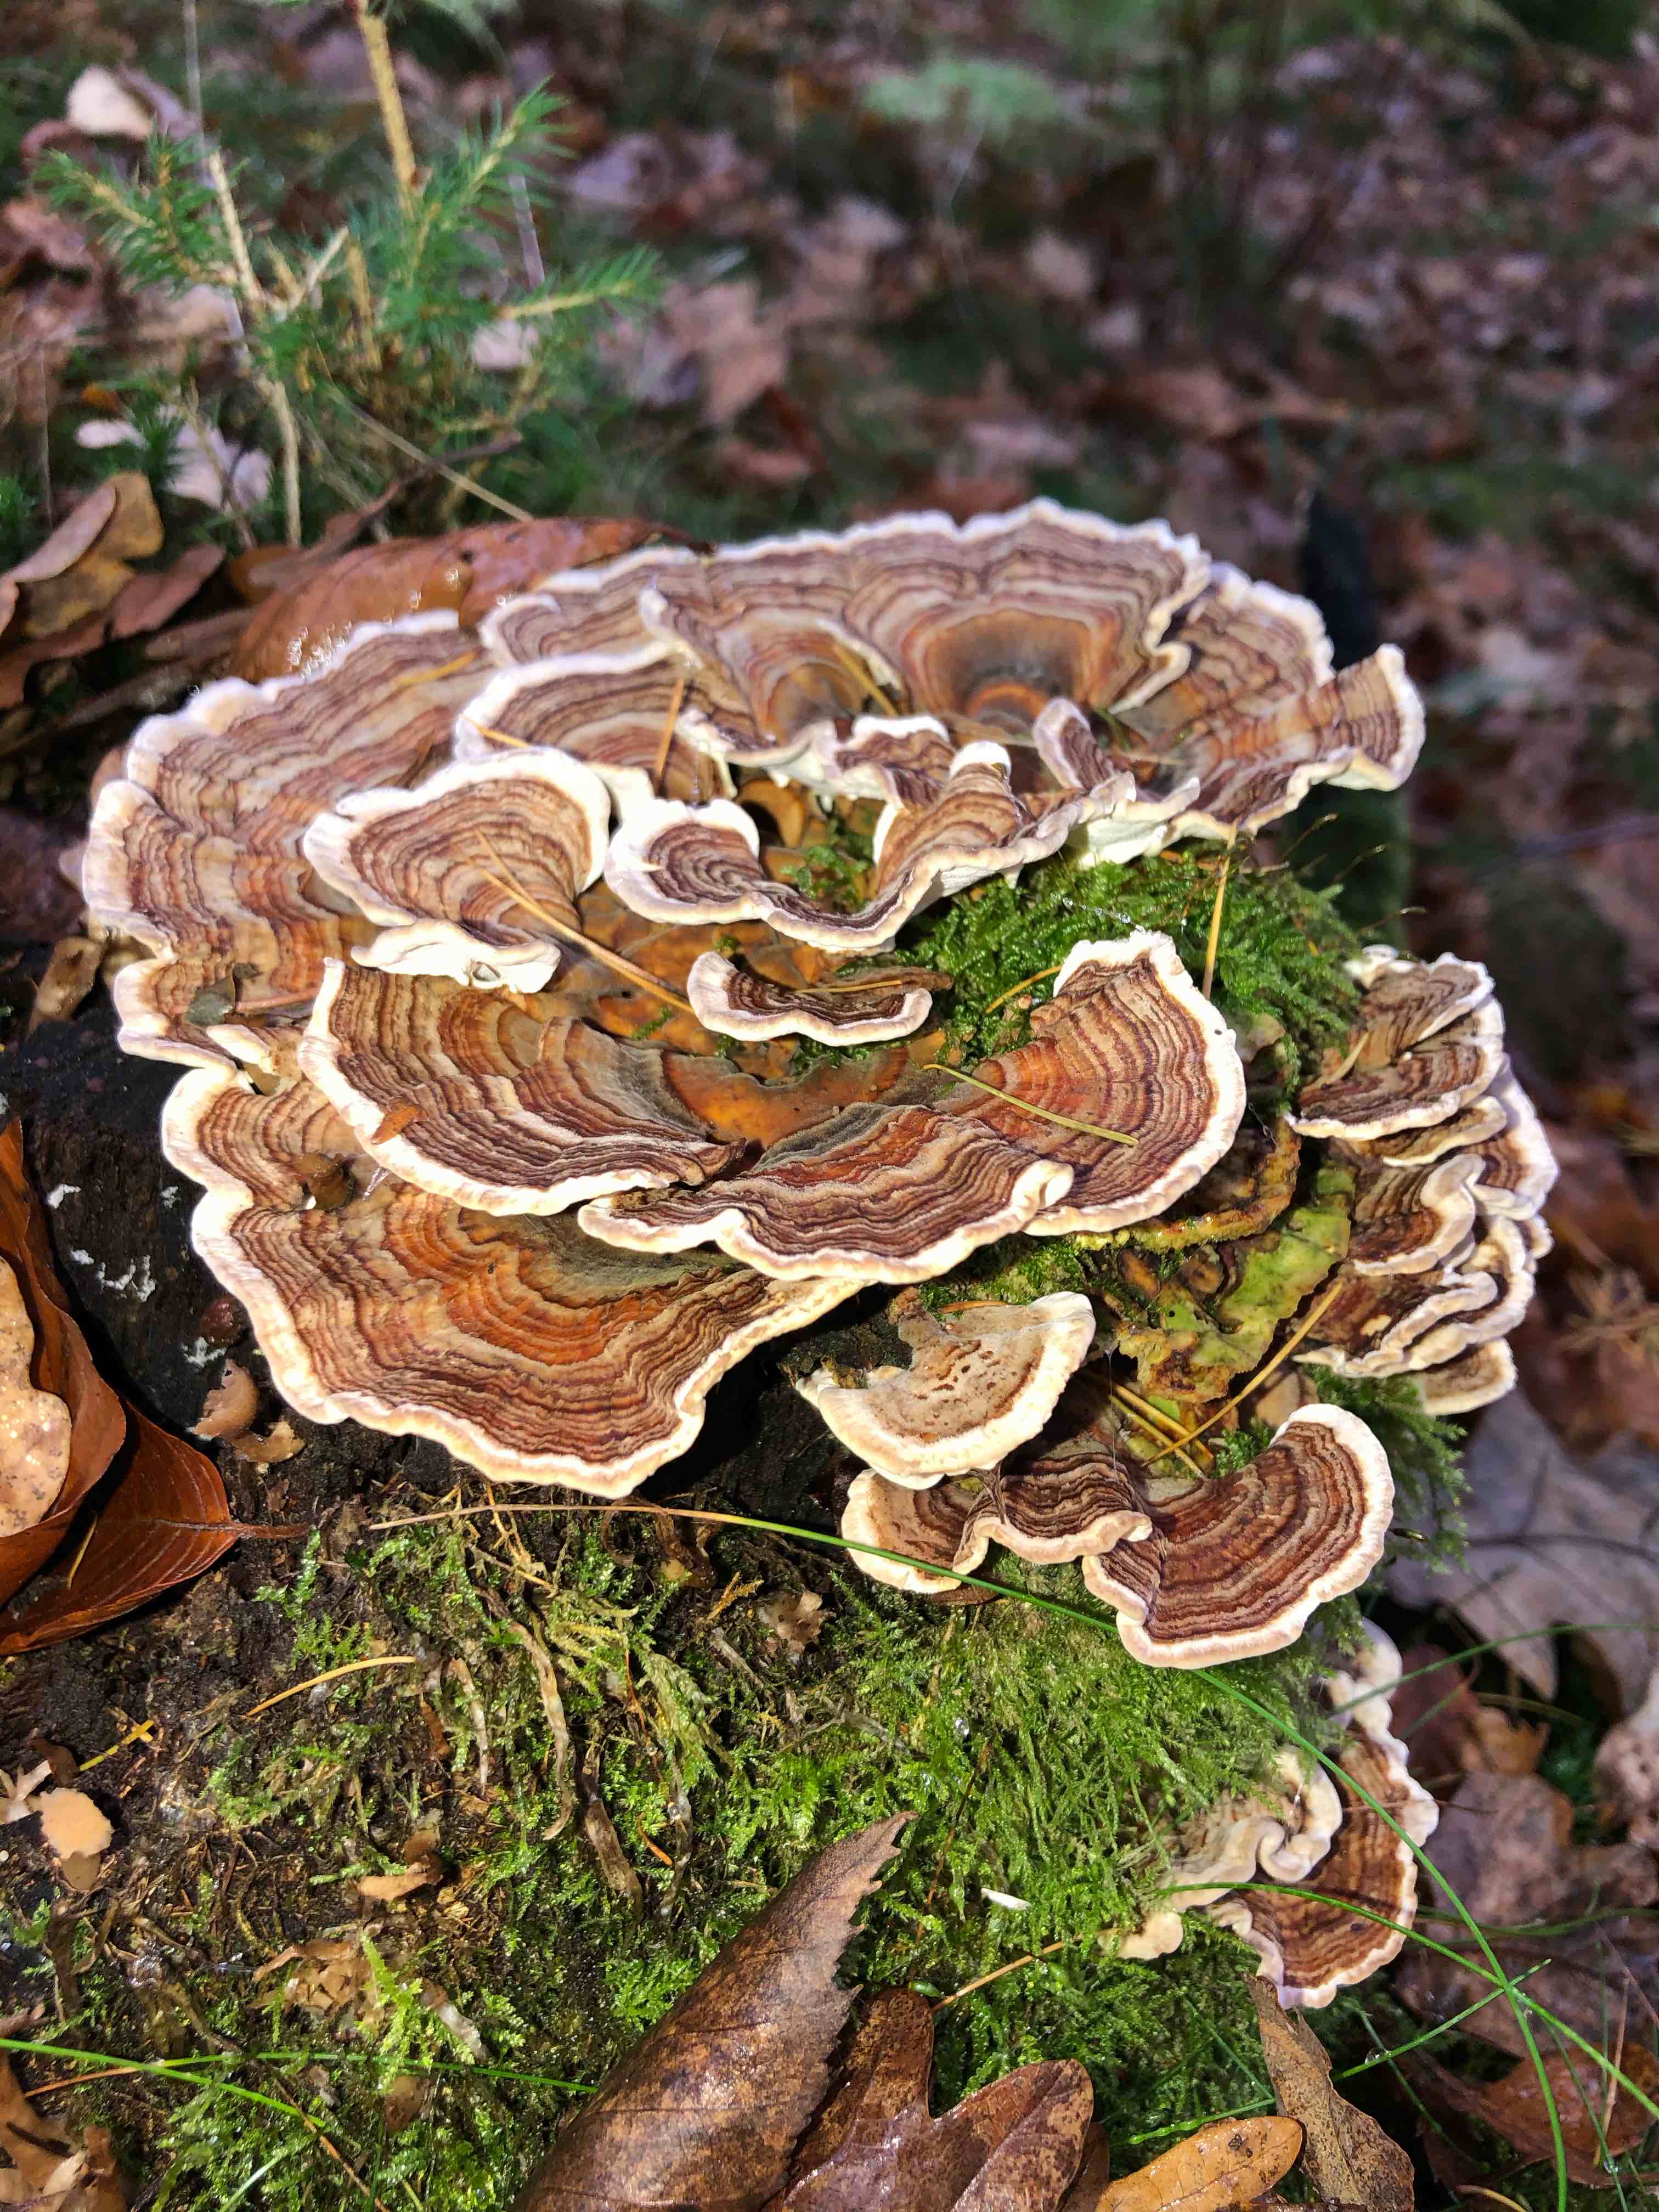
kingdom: Fungi
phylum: Basidiomycota
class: Agaricomycetes
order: Polyporales
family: Polyporaceae
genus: Trametes
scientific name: Trametes versicolor
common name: broget læderporesvamp
